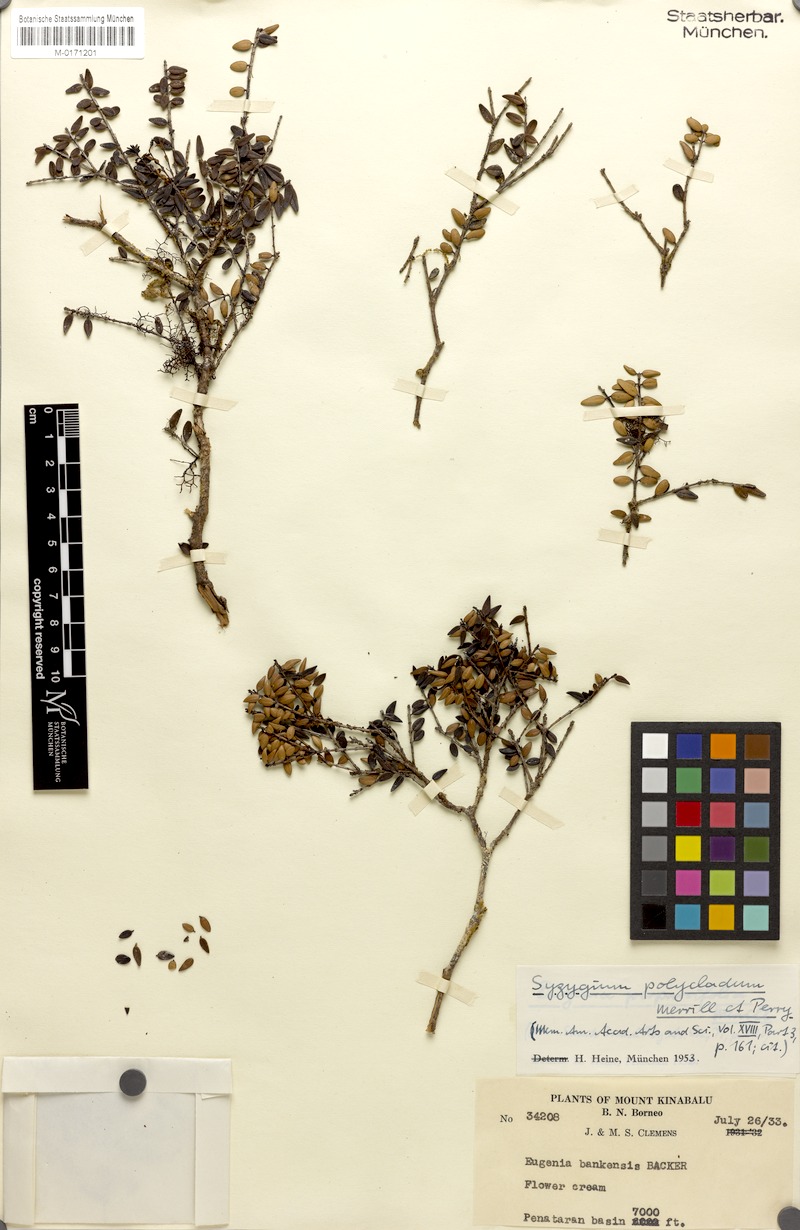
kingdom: Plantae
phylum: Tracheophyta
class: Magnoliopsida
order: Myrtales
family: Myrtaceae
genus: Syzygium
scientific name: Syzygium kinabaluense
